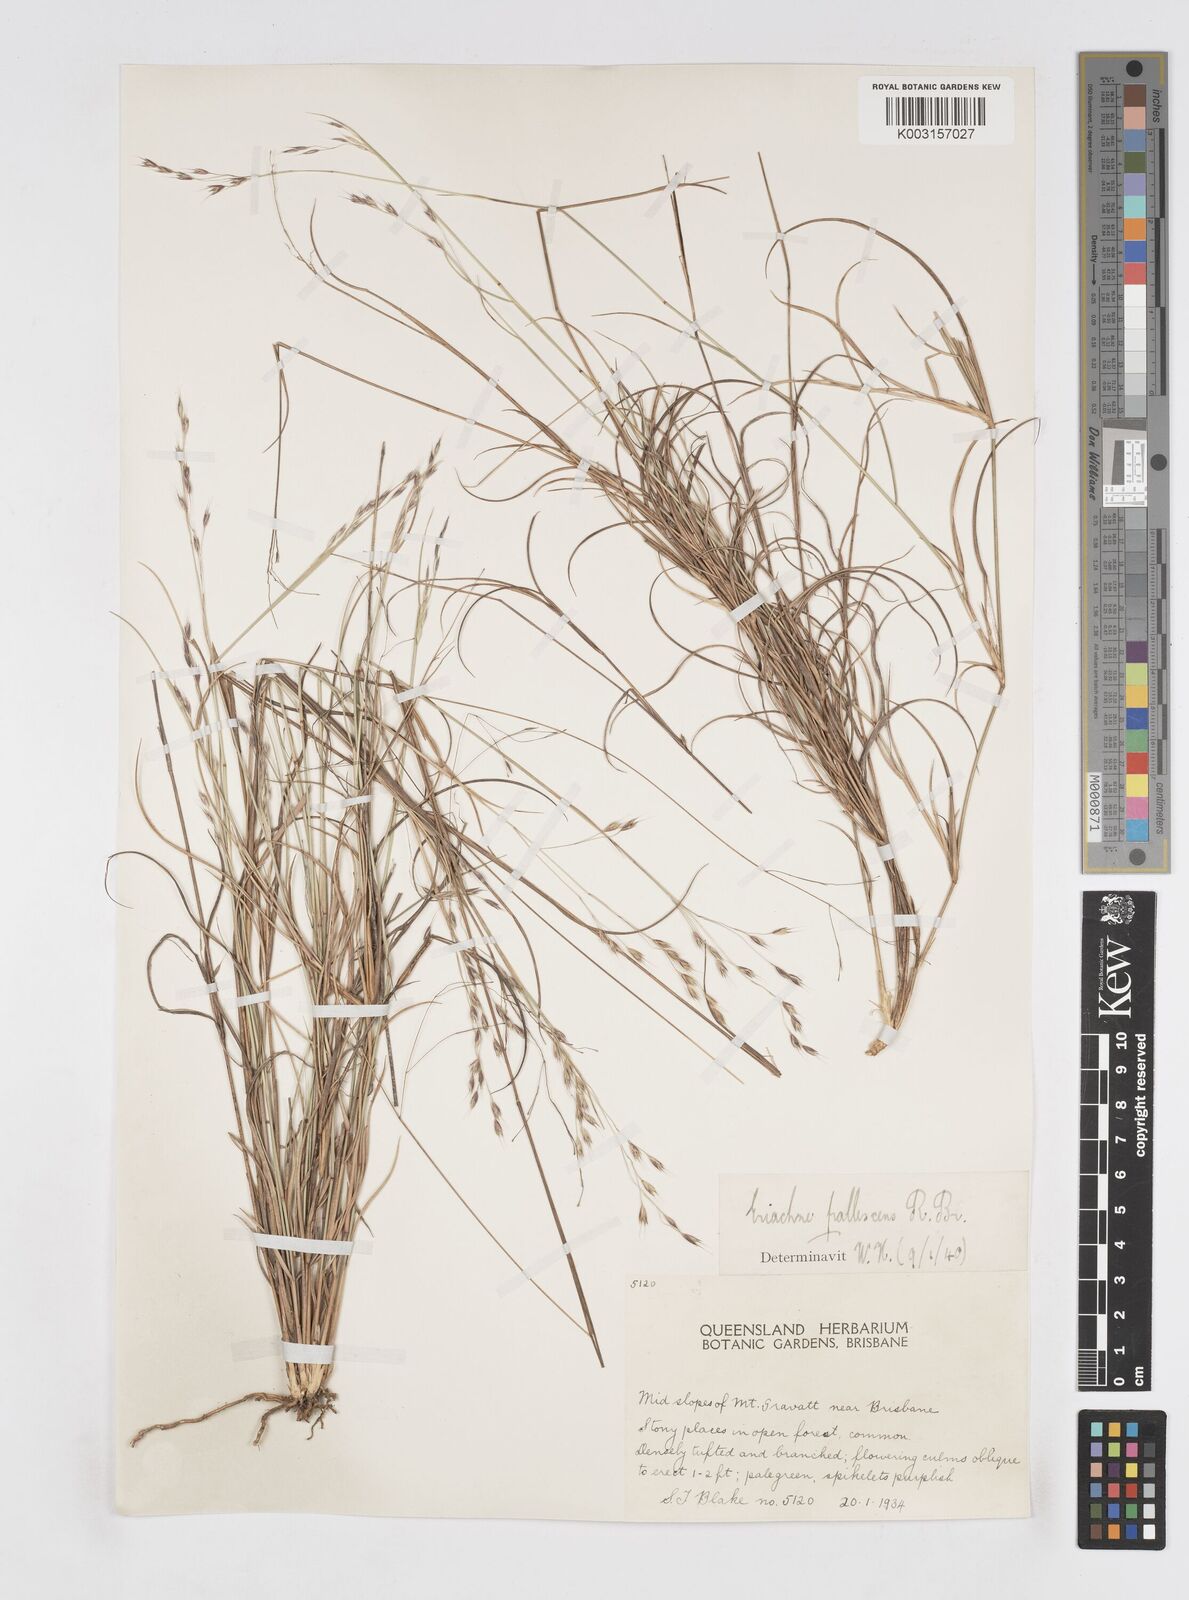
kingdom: Plantae
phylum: Tracheophyta
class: Liliopsida
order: Poales
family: Poaceae
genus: Eriachne
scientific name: Eriachne pallescens
